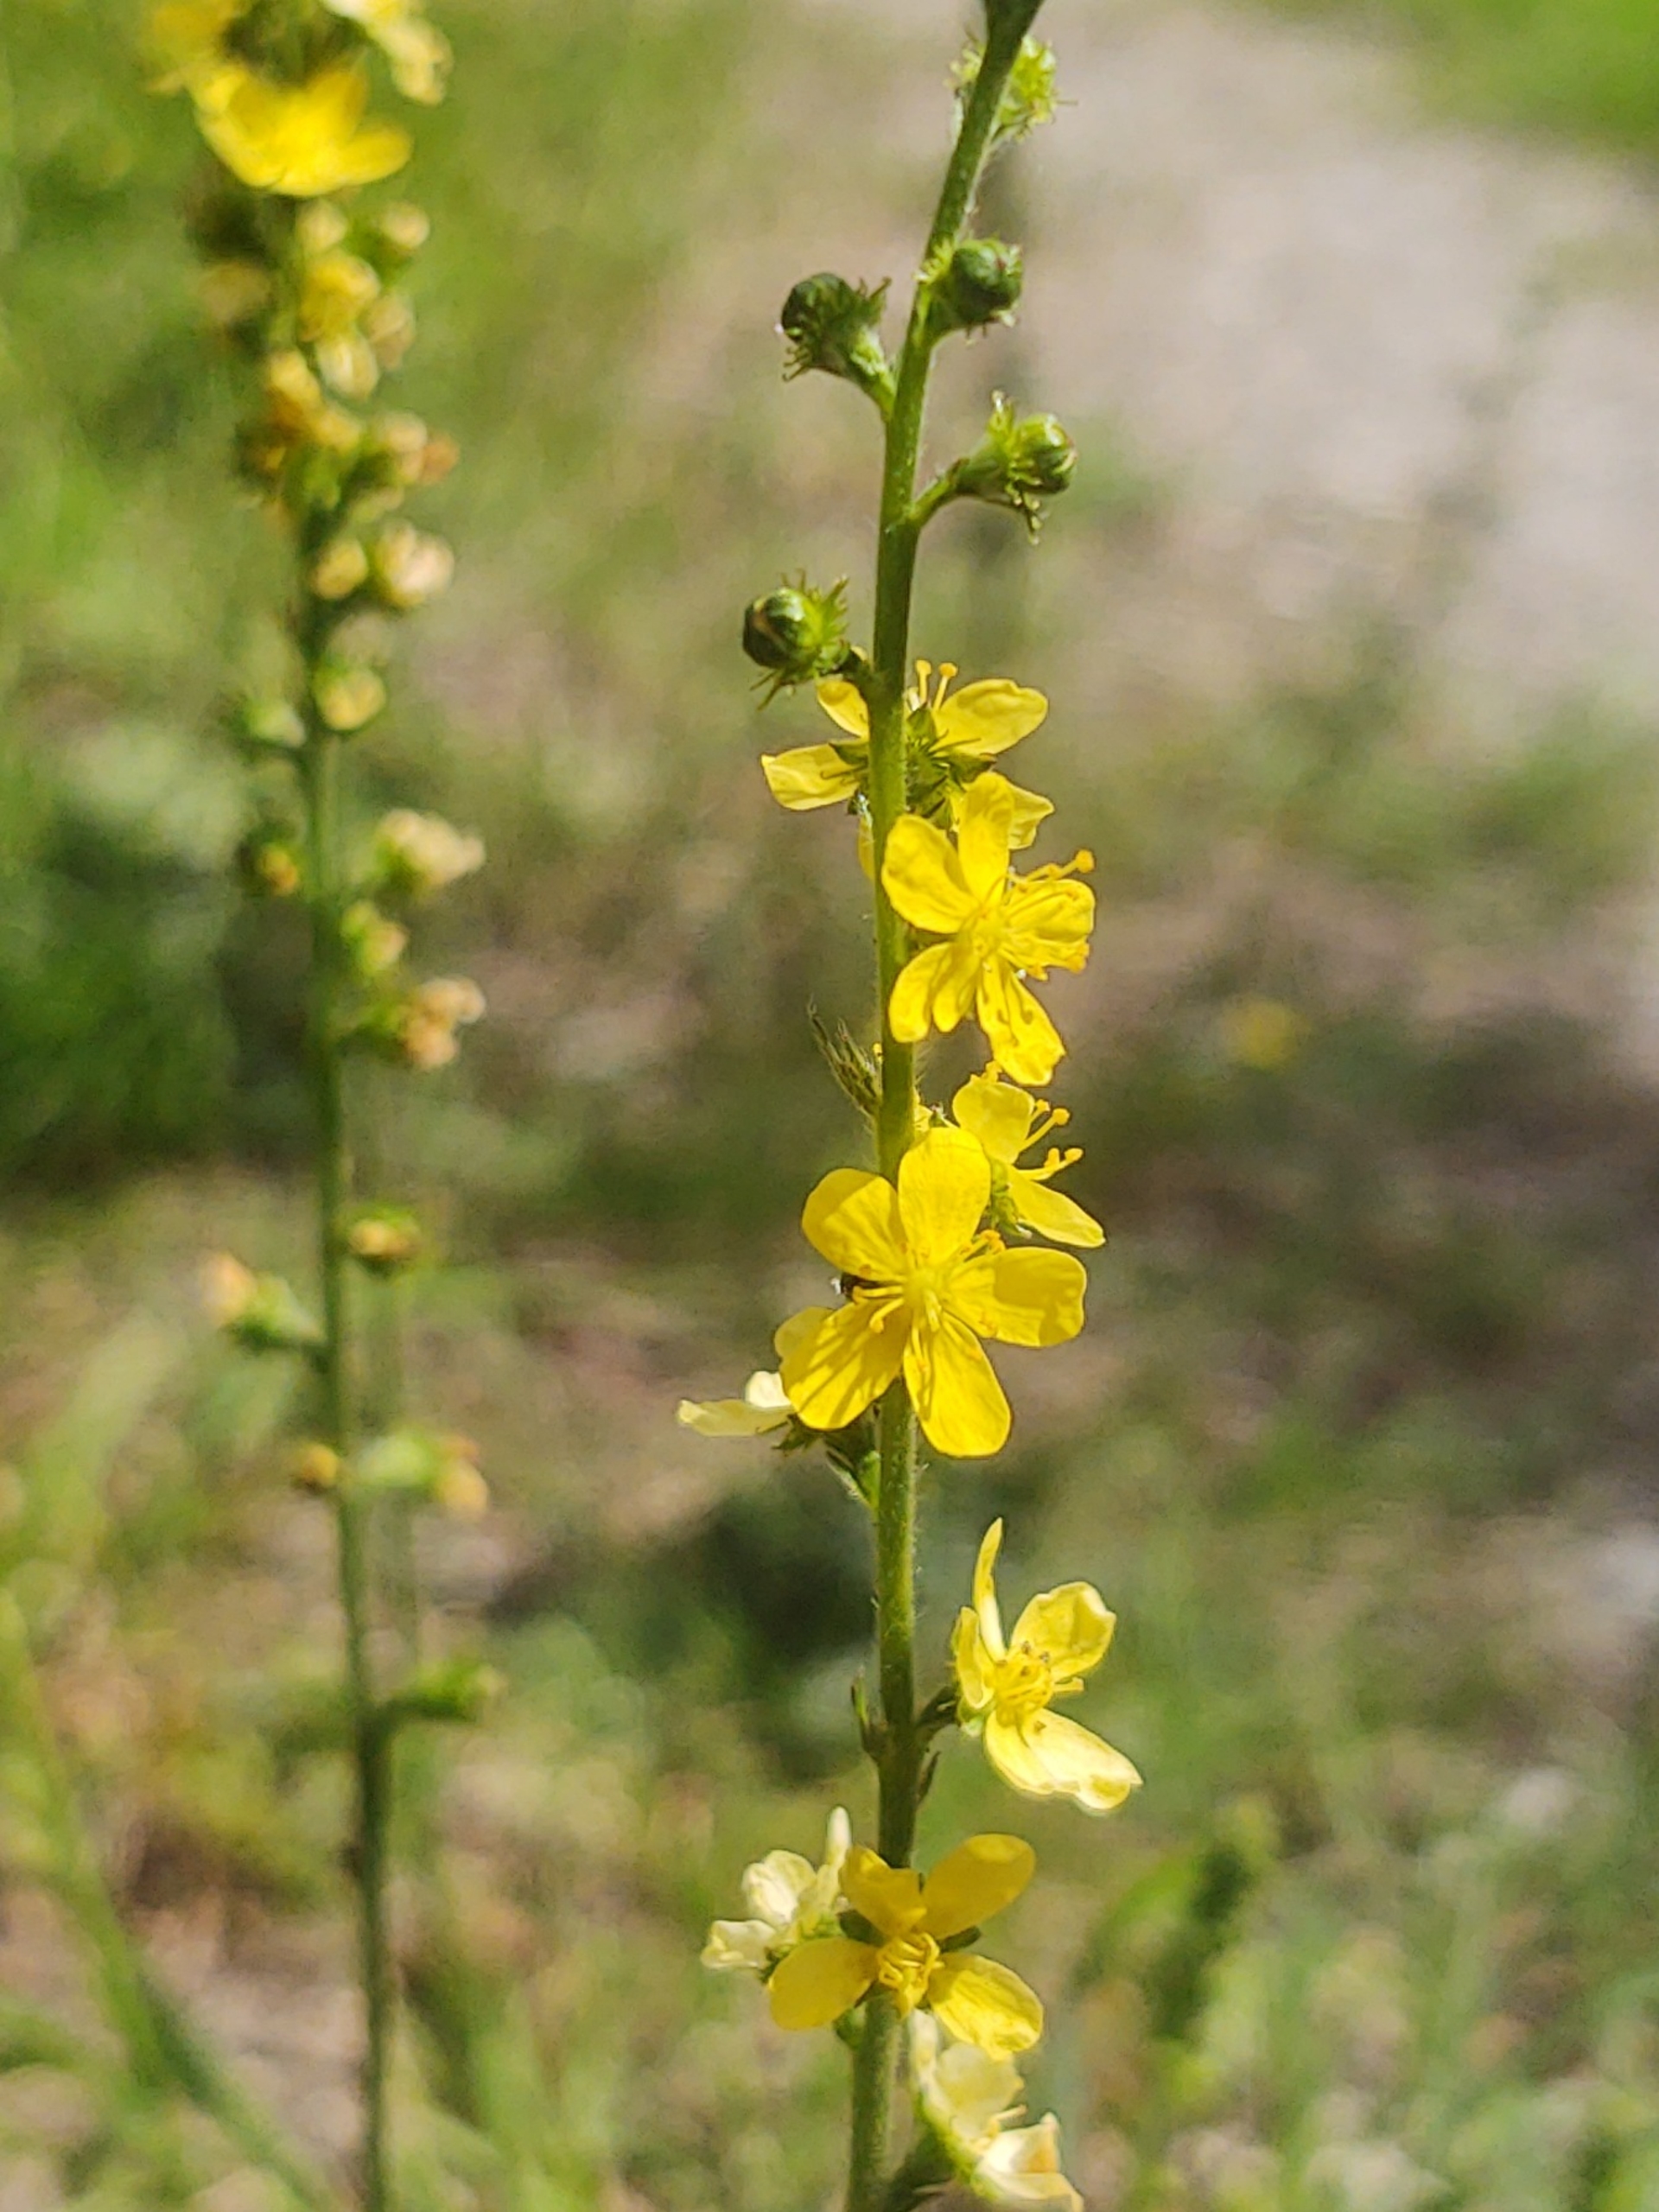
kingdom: Plantae
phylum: Tracheophyta
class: Magnoliopsida
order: Rosales
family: Rosaceae
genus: Agrimonia
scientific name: Agrimonia eupatoria
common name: Almindelig agermåne
